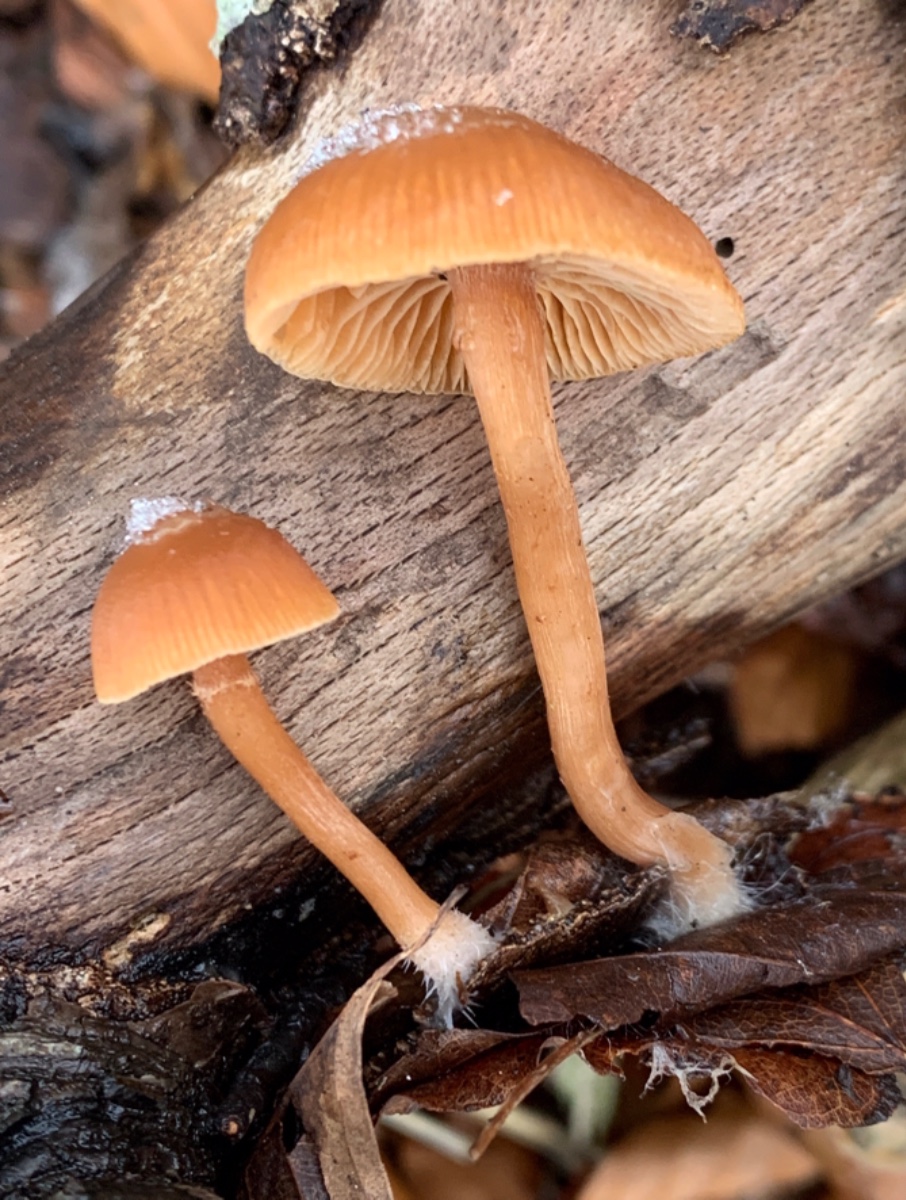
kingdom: Fungi
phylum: Basidiomycota
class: Agaricomycetes
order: Agaricales
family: Tubariaceae
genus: Tubaria
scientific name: Tubaria furfuracea
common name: kliddet fnughat
